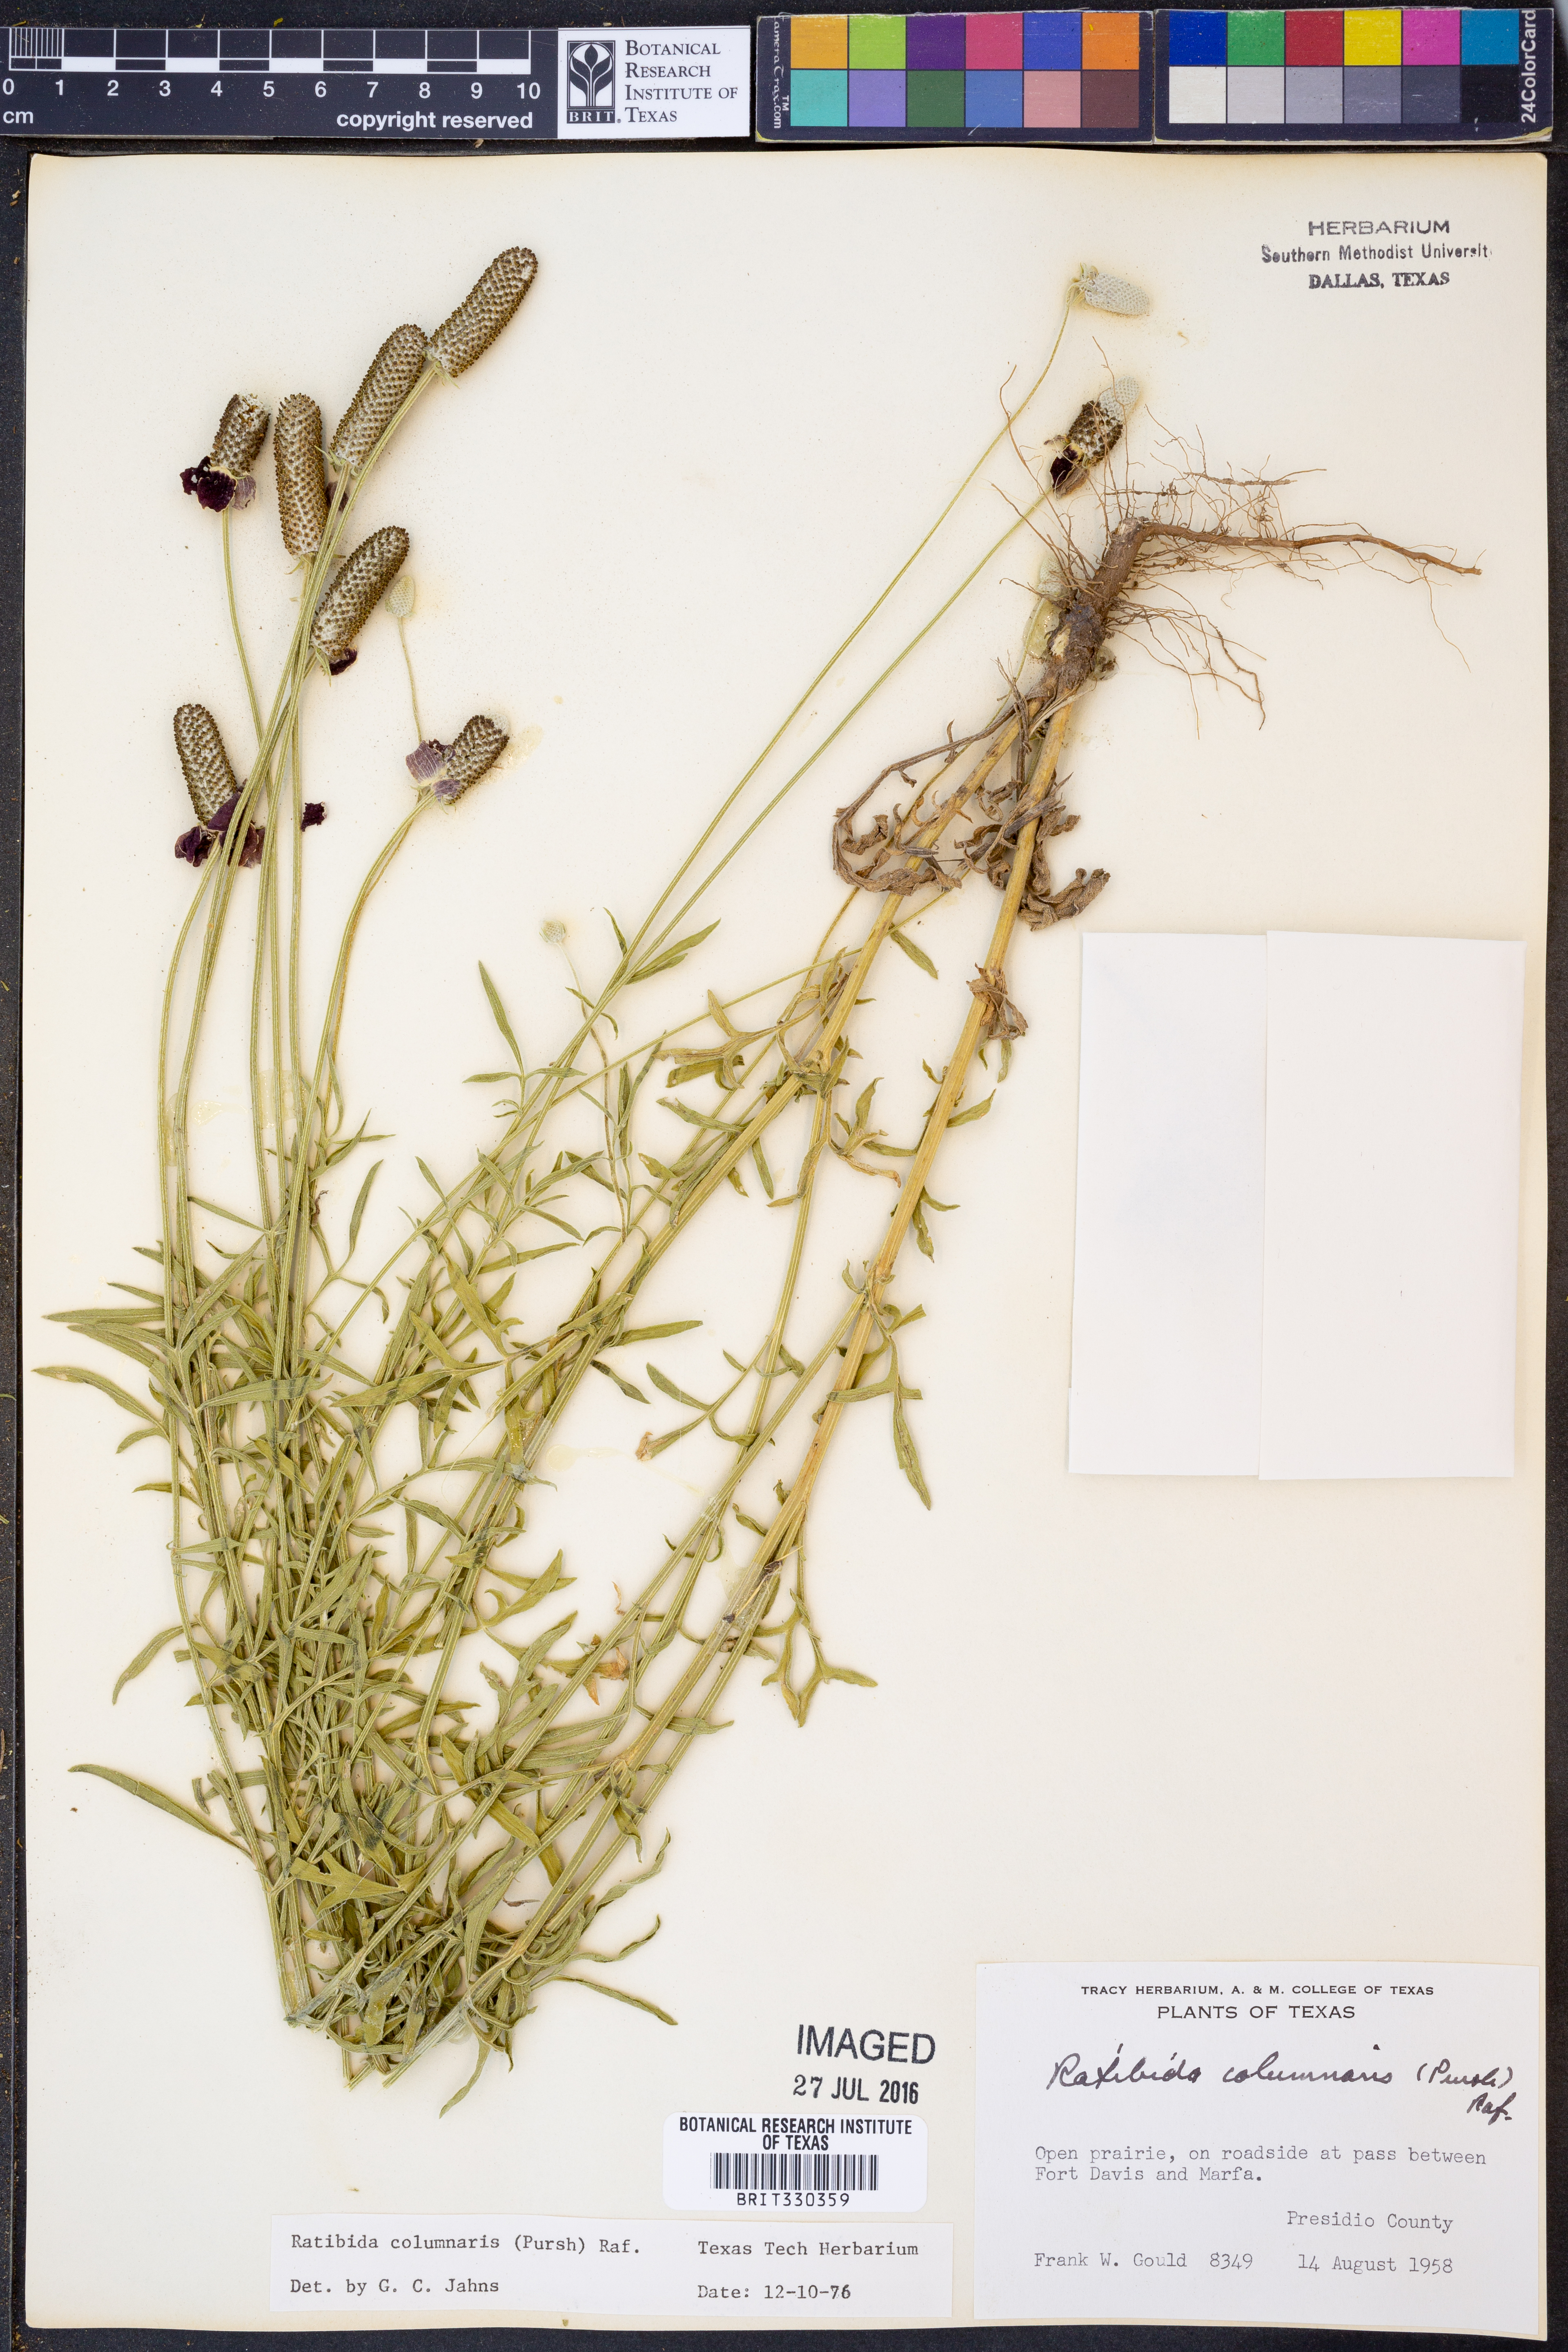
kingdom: Plantae
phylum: Tracheophyta
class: Magnoliopsida
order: Asterales
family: Asteraceae
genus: Ratibida
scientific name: Ratibida columnifera
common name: Prairie coneflower
